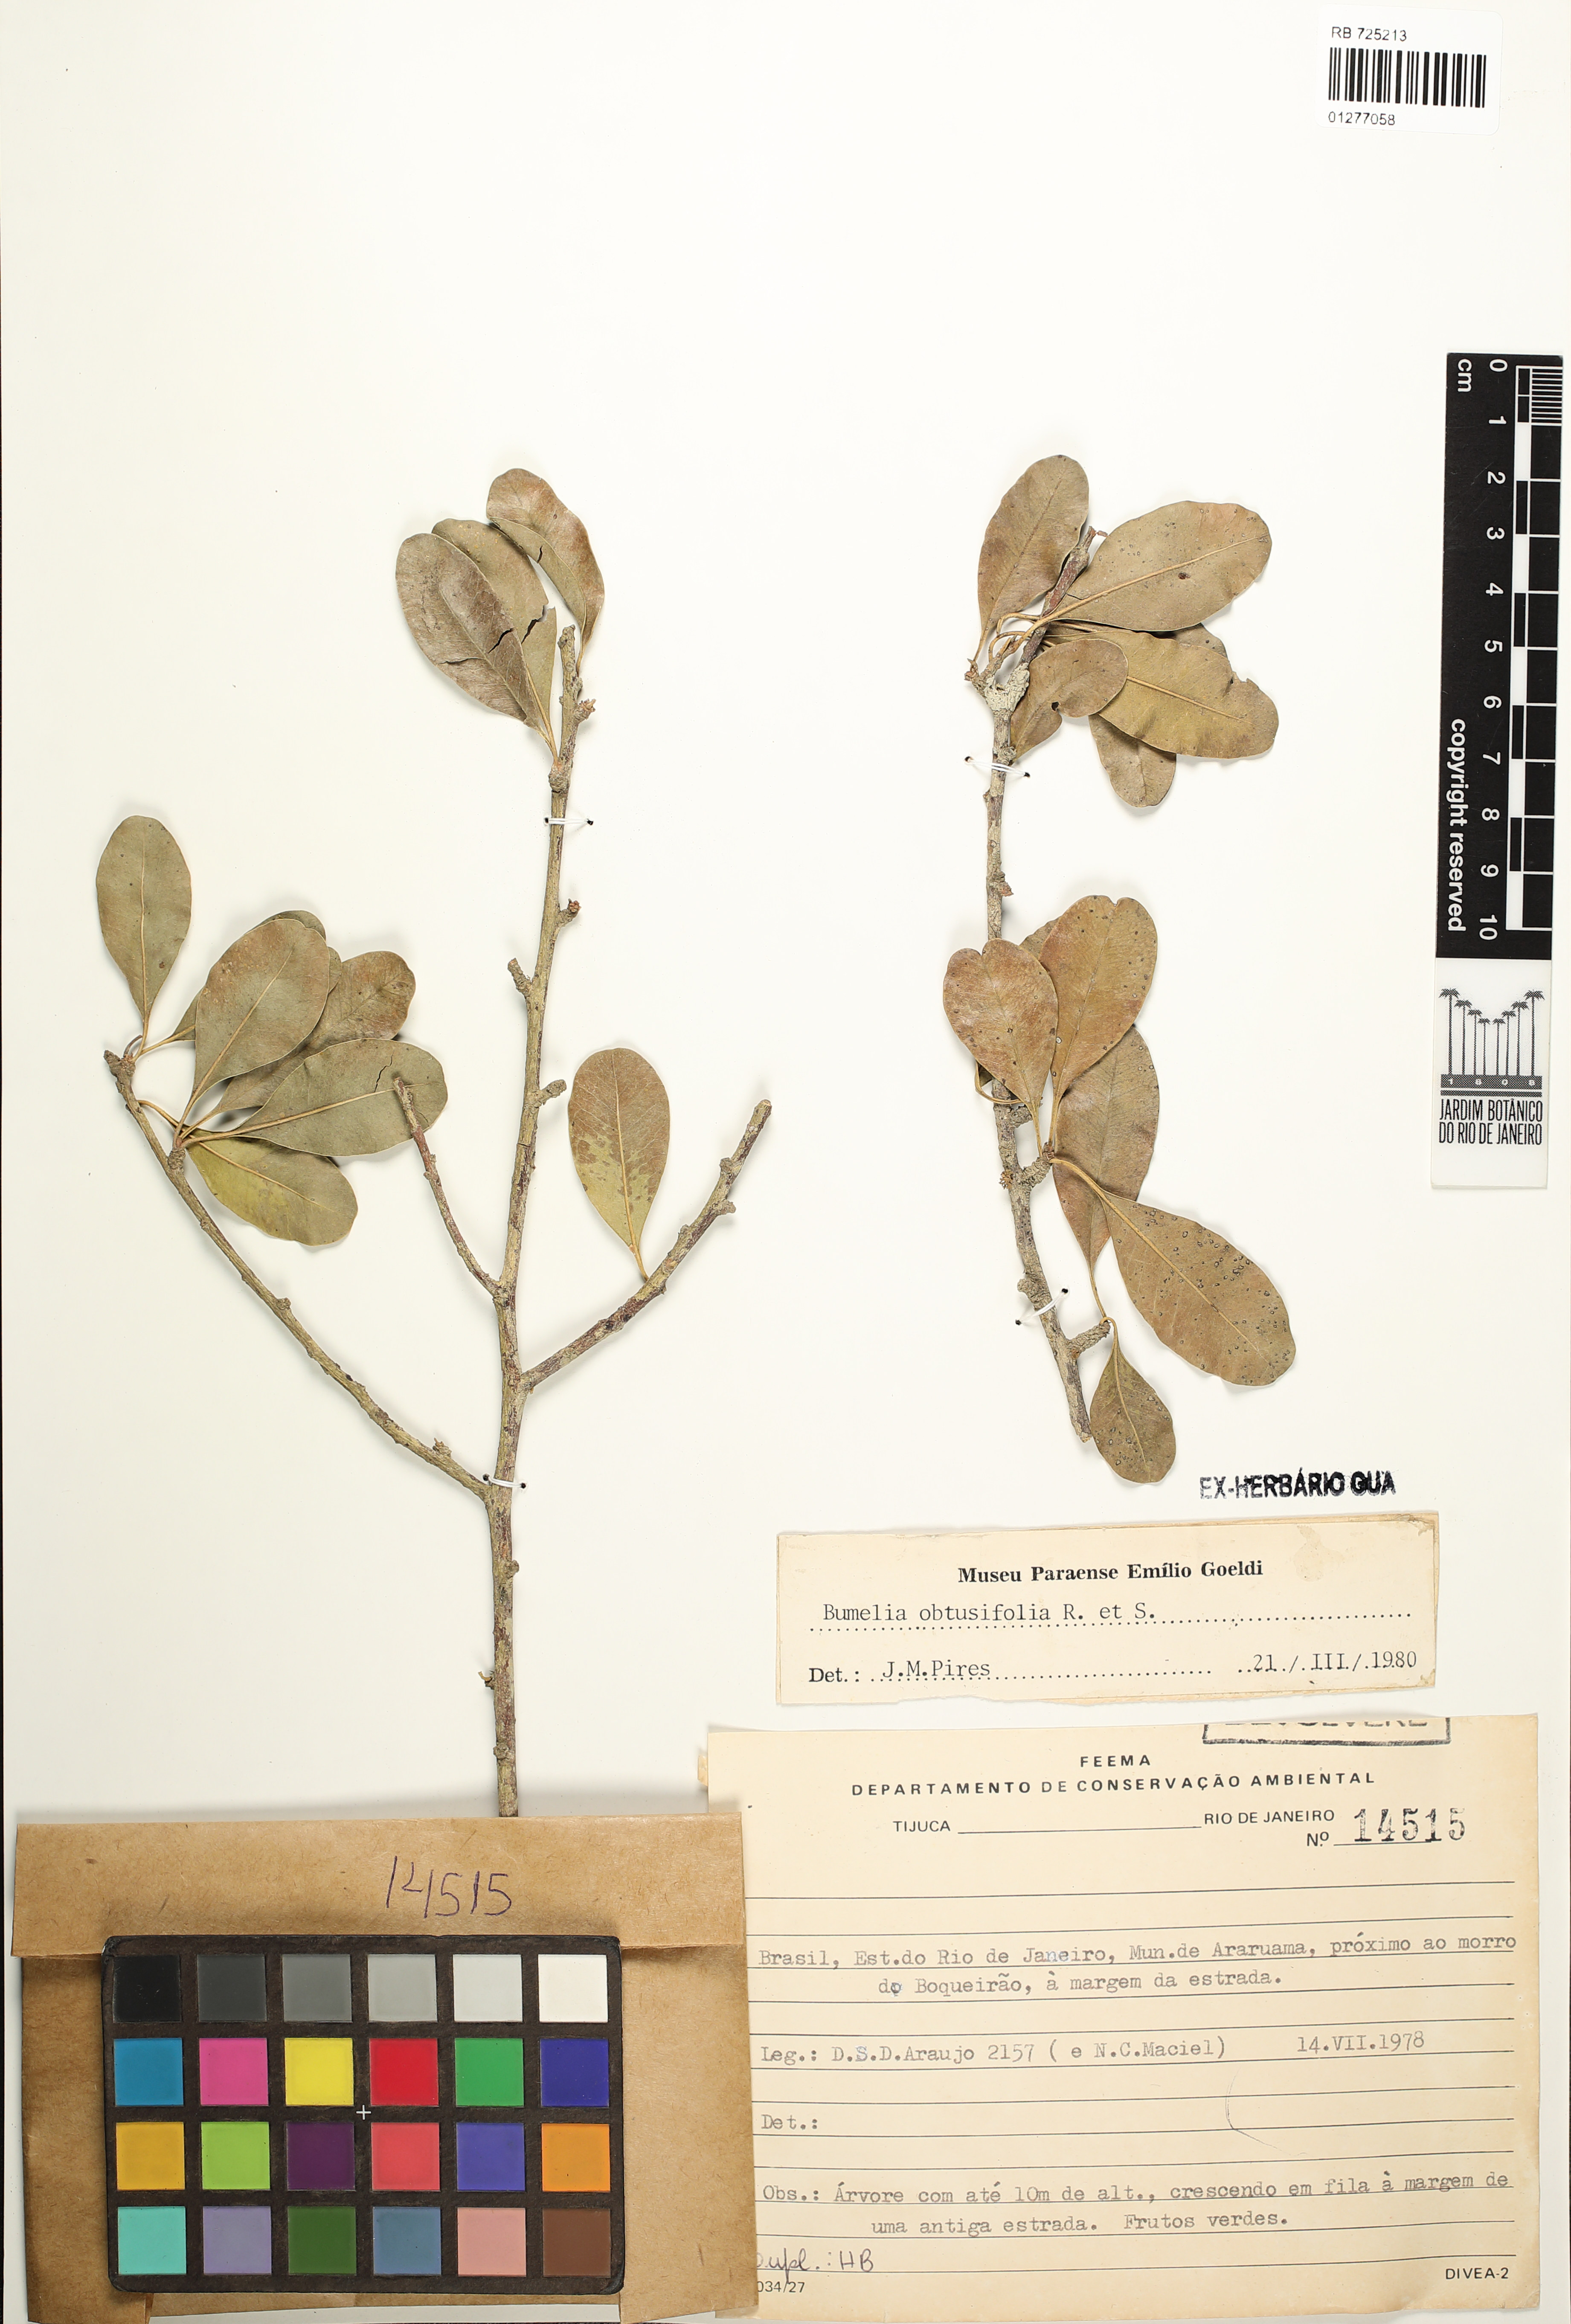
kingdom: Plantae
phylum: Tracheophyta
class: Magnoliopsida
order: Ericales
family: Sapotaceae
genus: Sideroxylon
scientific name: Sideroxylon obtusifolium
